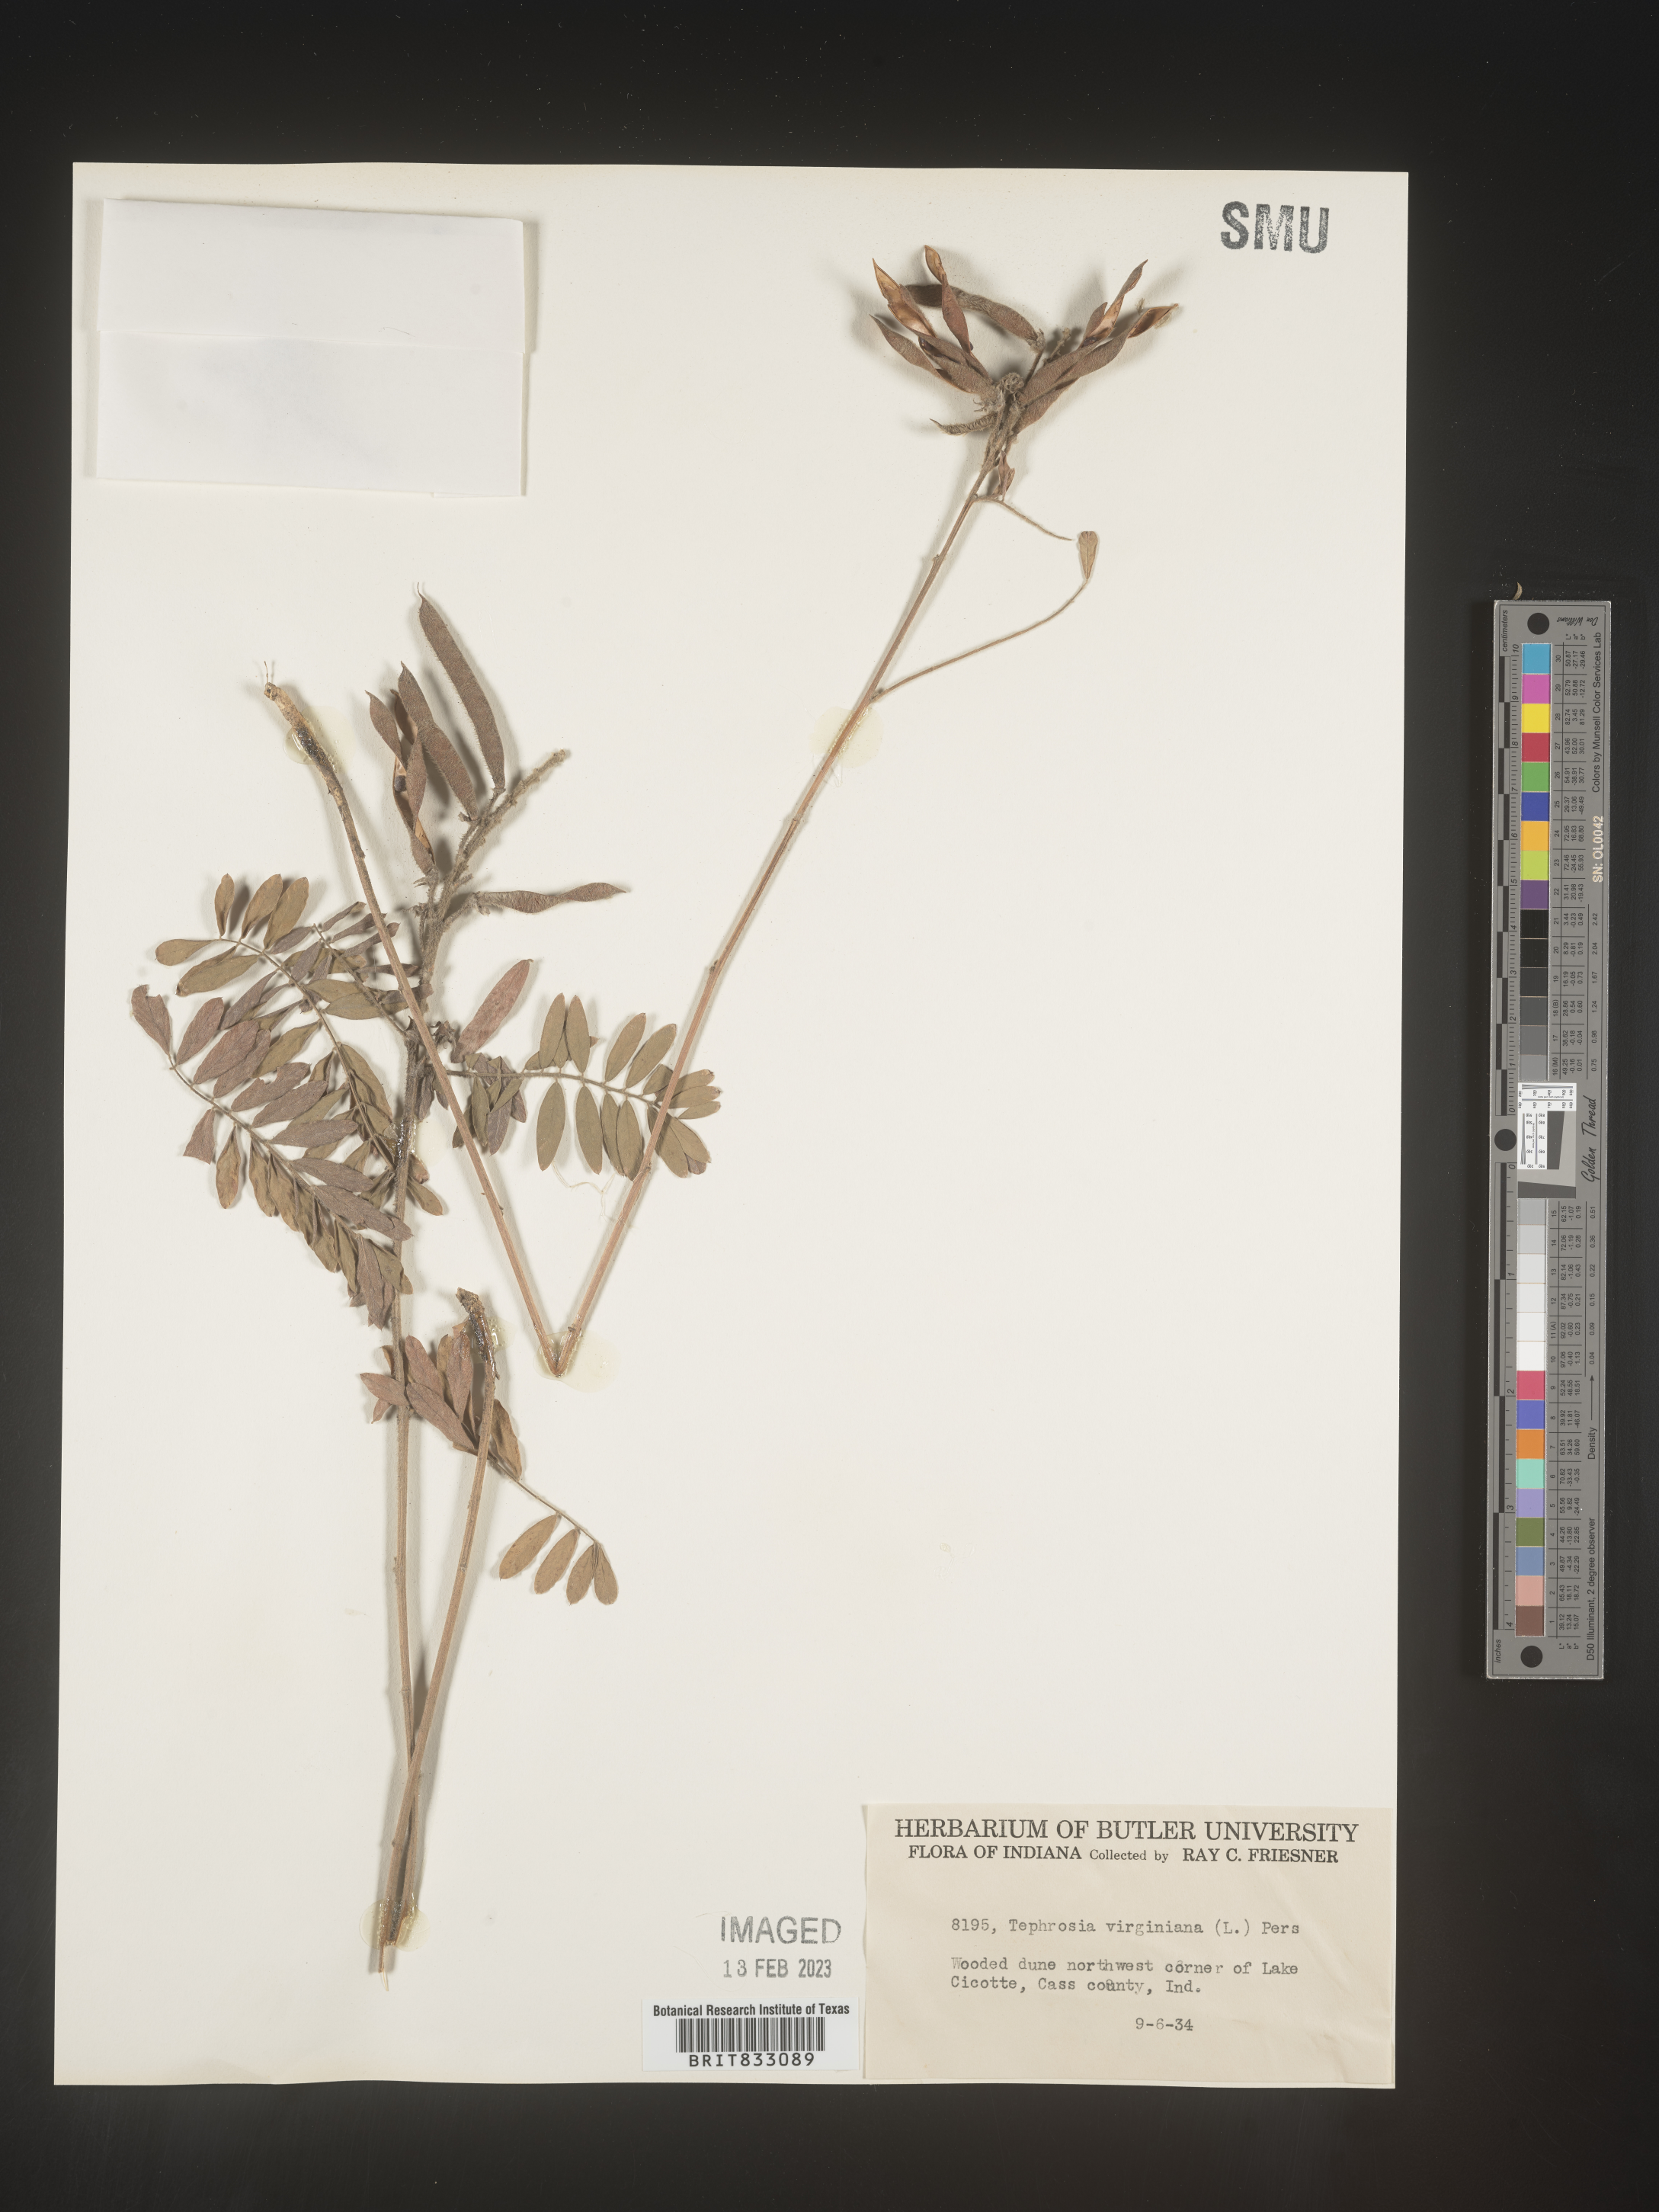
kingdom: Plantae
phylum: Tracheophyta
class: Magnoliopsida
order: Fabales
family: Fabaceae
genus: Tephrosia
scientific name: Tephrosia virginiana
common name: Rabbit-pea
